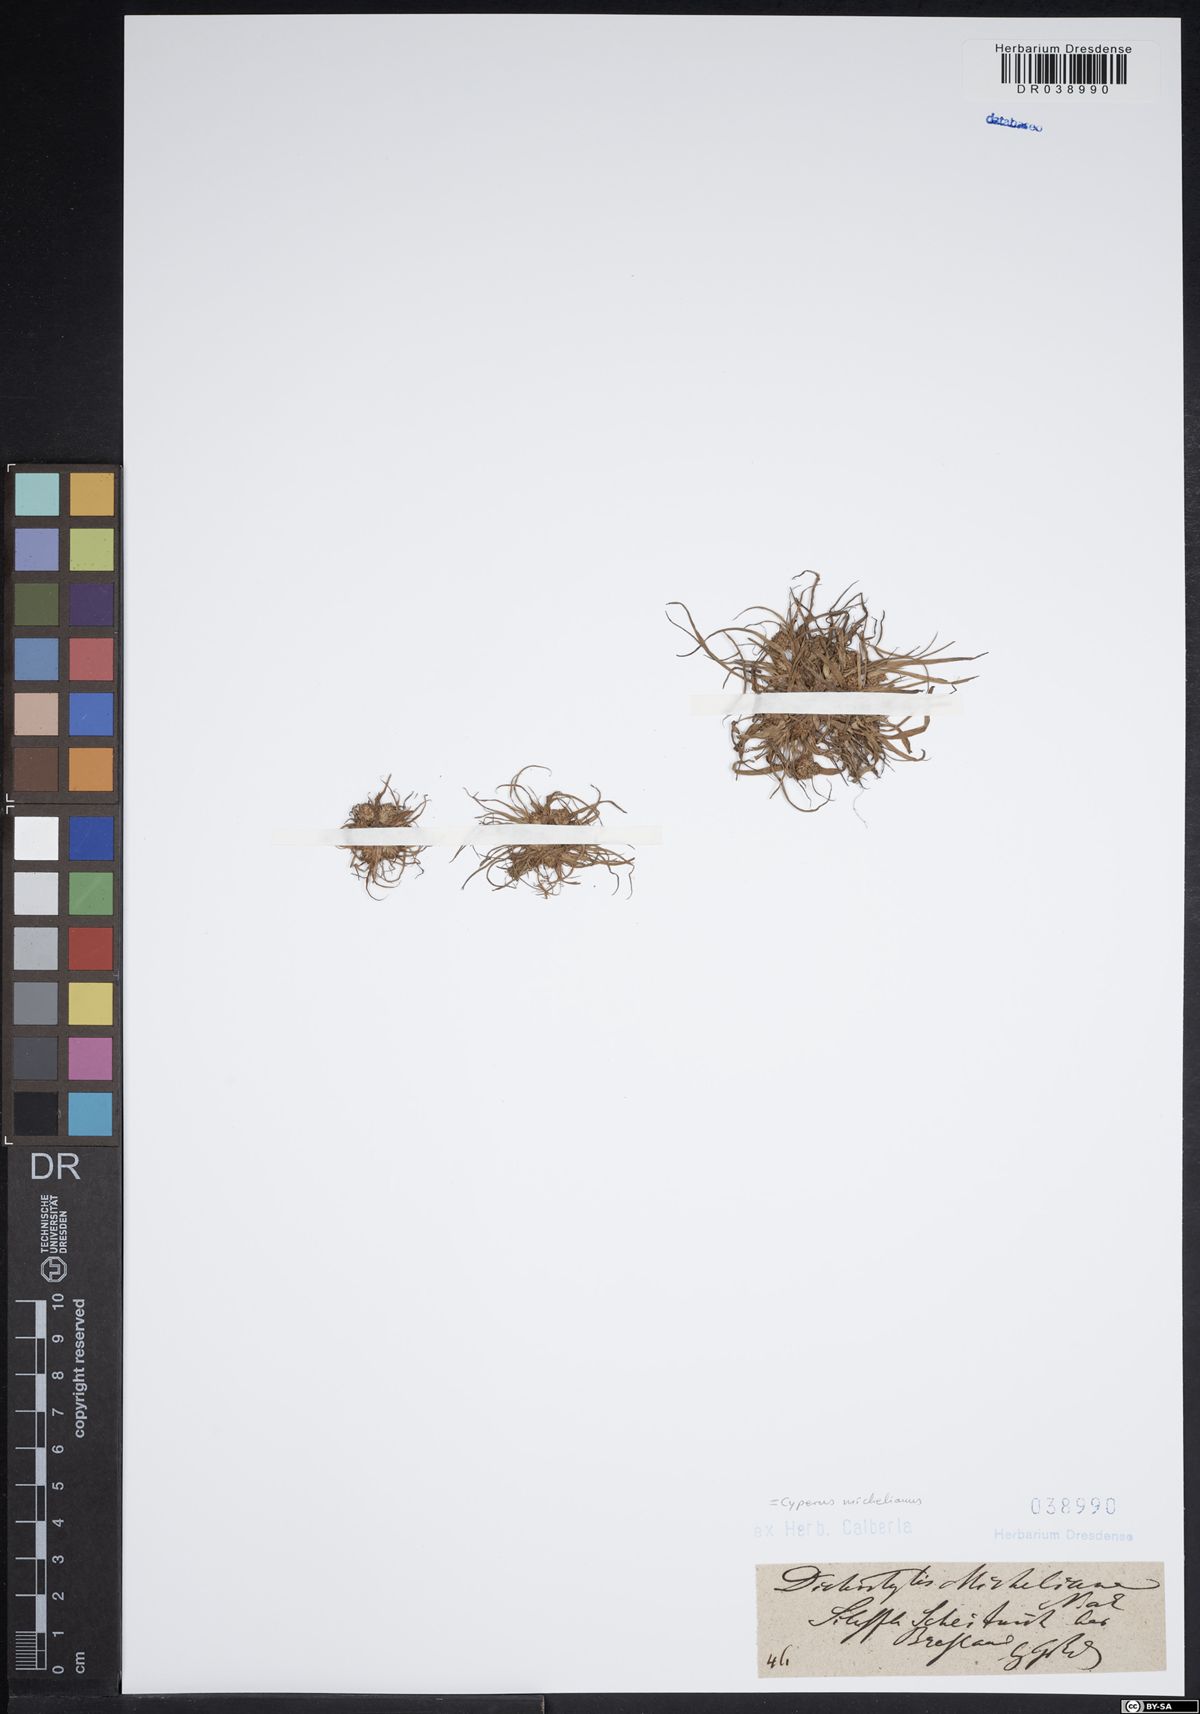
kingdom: Plantae
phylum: Tracheophyta
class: Liliopsida
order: Poales
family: Cyperaceae
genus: Cyperus
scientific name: Cyperus michelianus
